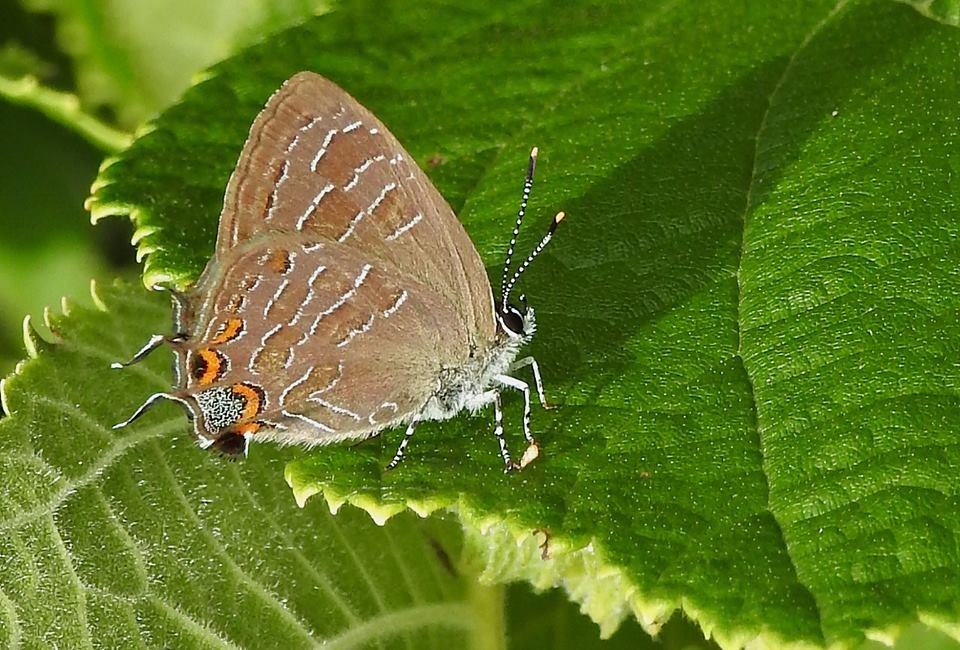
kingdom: Animalia
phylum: Arthropoda
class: Insecta
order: Lepidoptera
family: Lycaenidae
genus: Satyrium
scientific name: Satyrium liparops
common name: Striped Hairstreak
